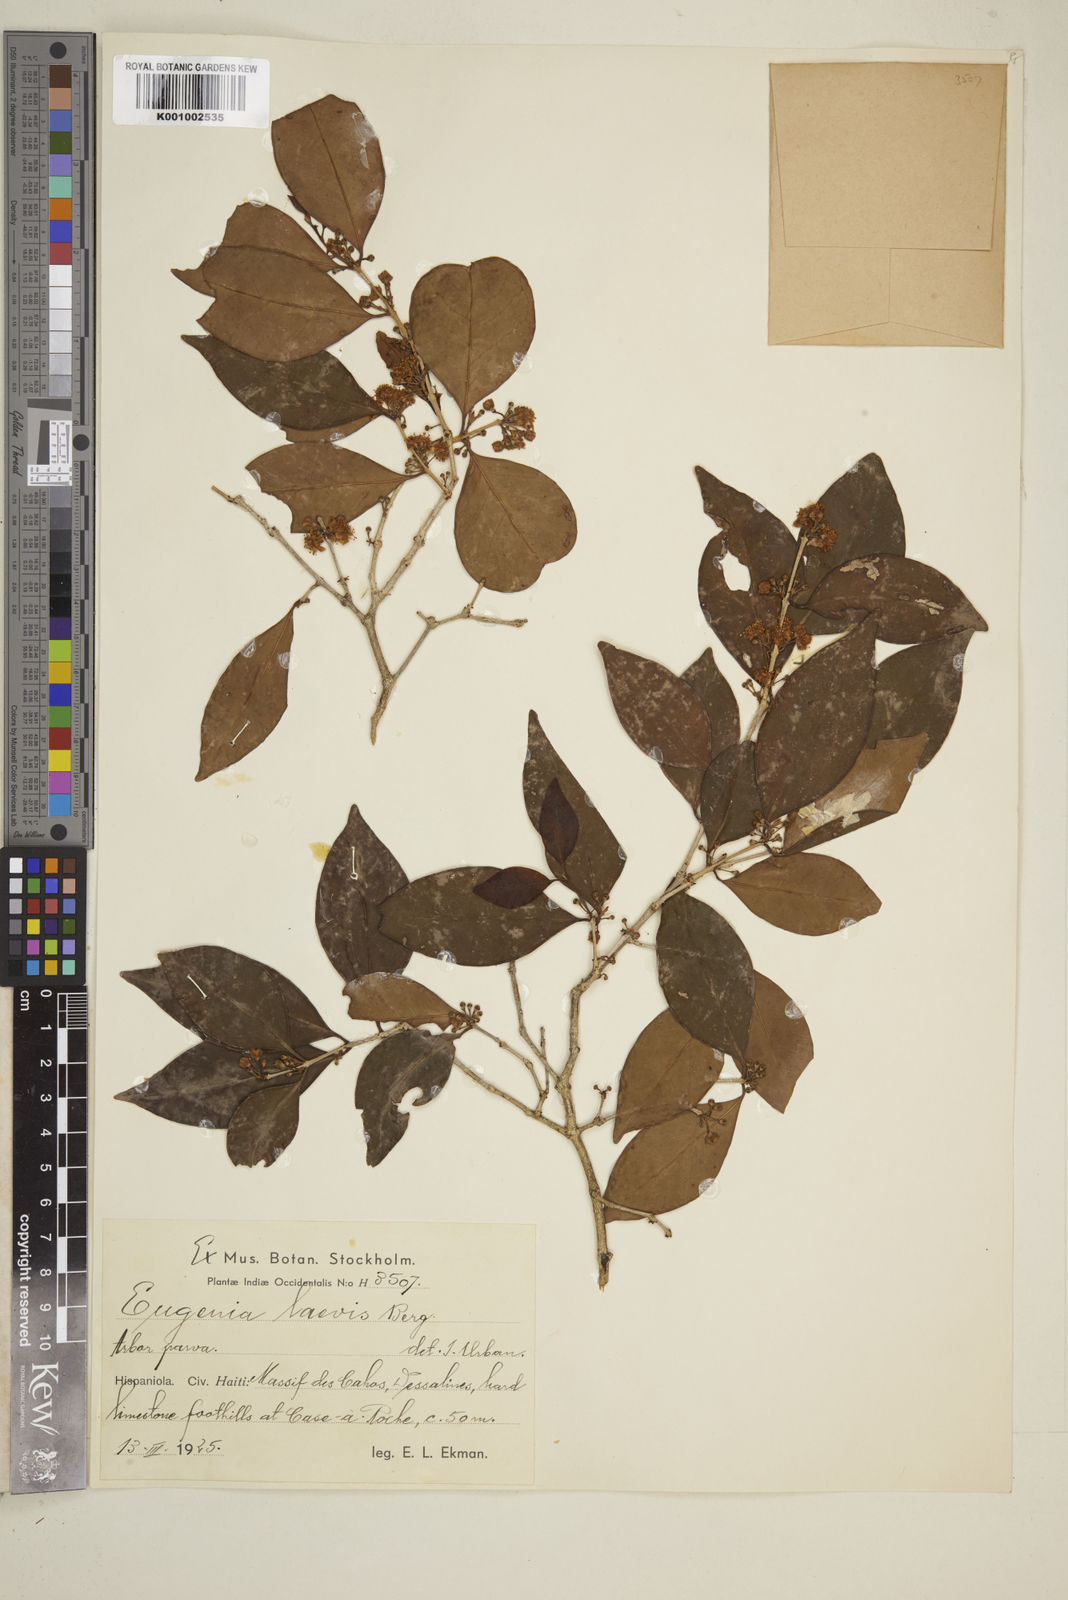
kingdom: Plantae
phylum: Tracheophyta
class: Magnoliopsida
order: Myrtales
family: Myrtaceae
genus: Eugenia
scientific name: Eugenia laevis
